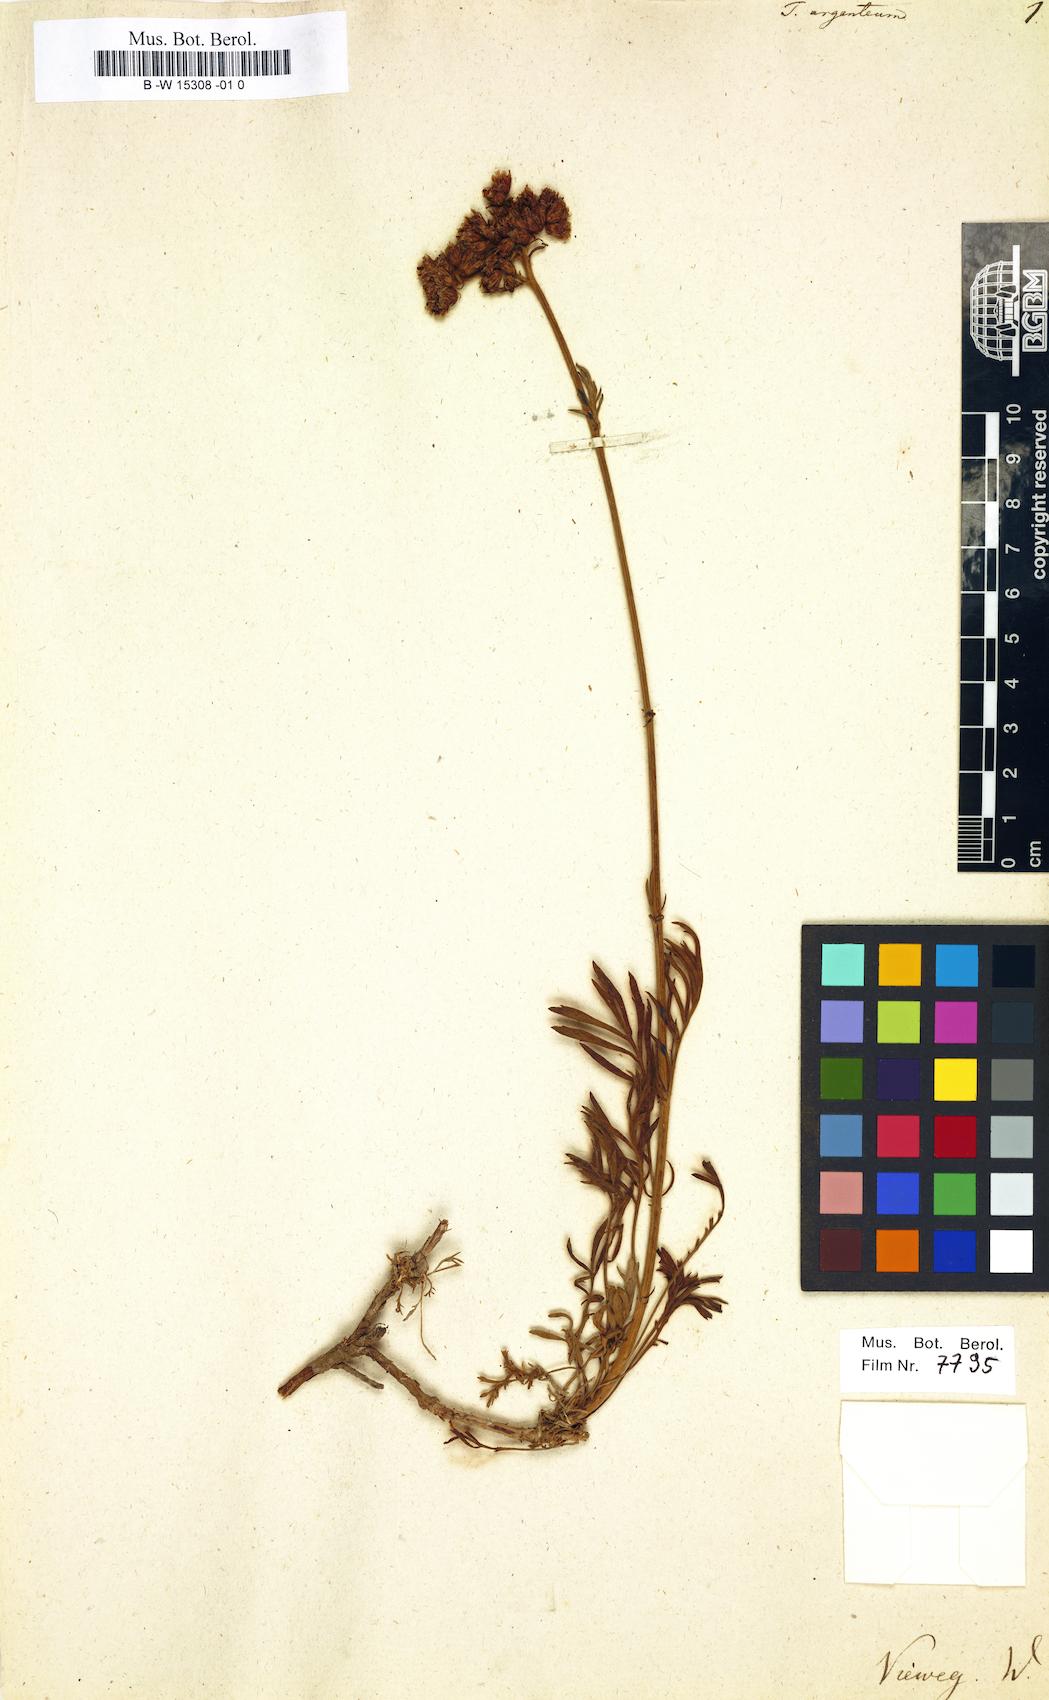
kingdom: Plantae
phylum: Tracheophyta
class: Magnoliopsida
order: Asterales
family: Asteraceae
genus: Tanacetum
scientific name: Tanacetum argenteum
